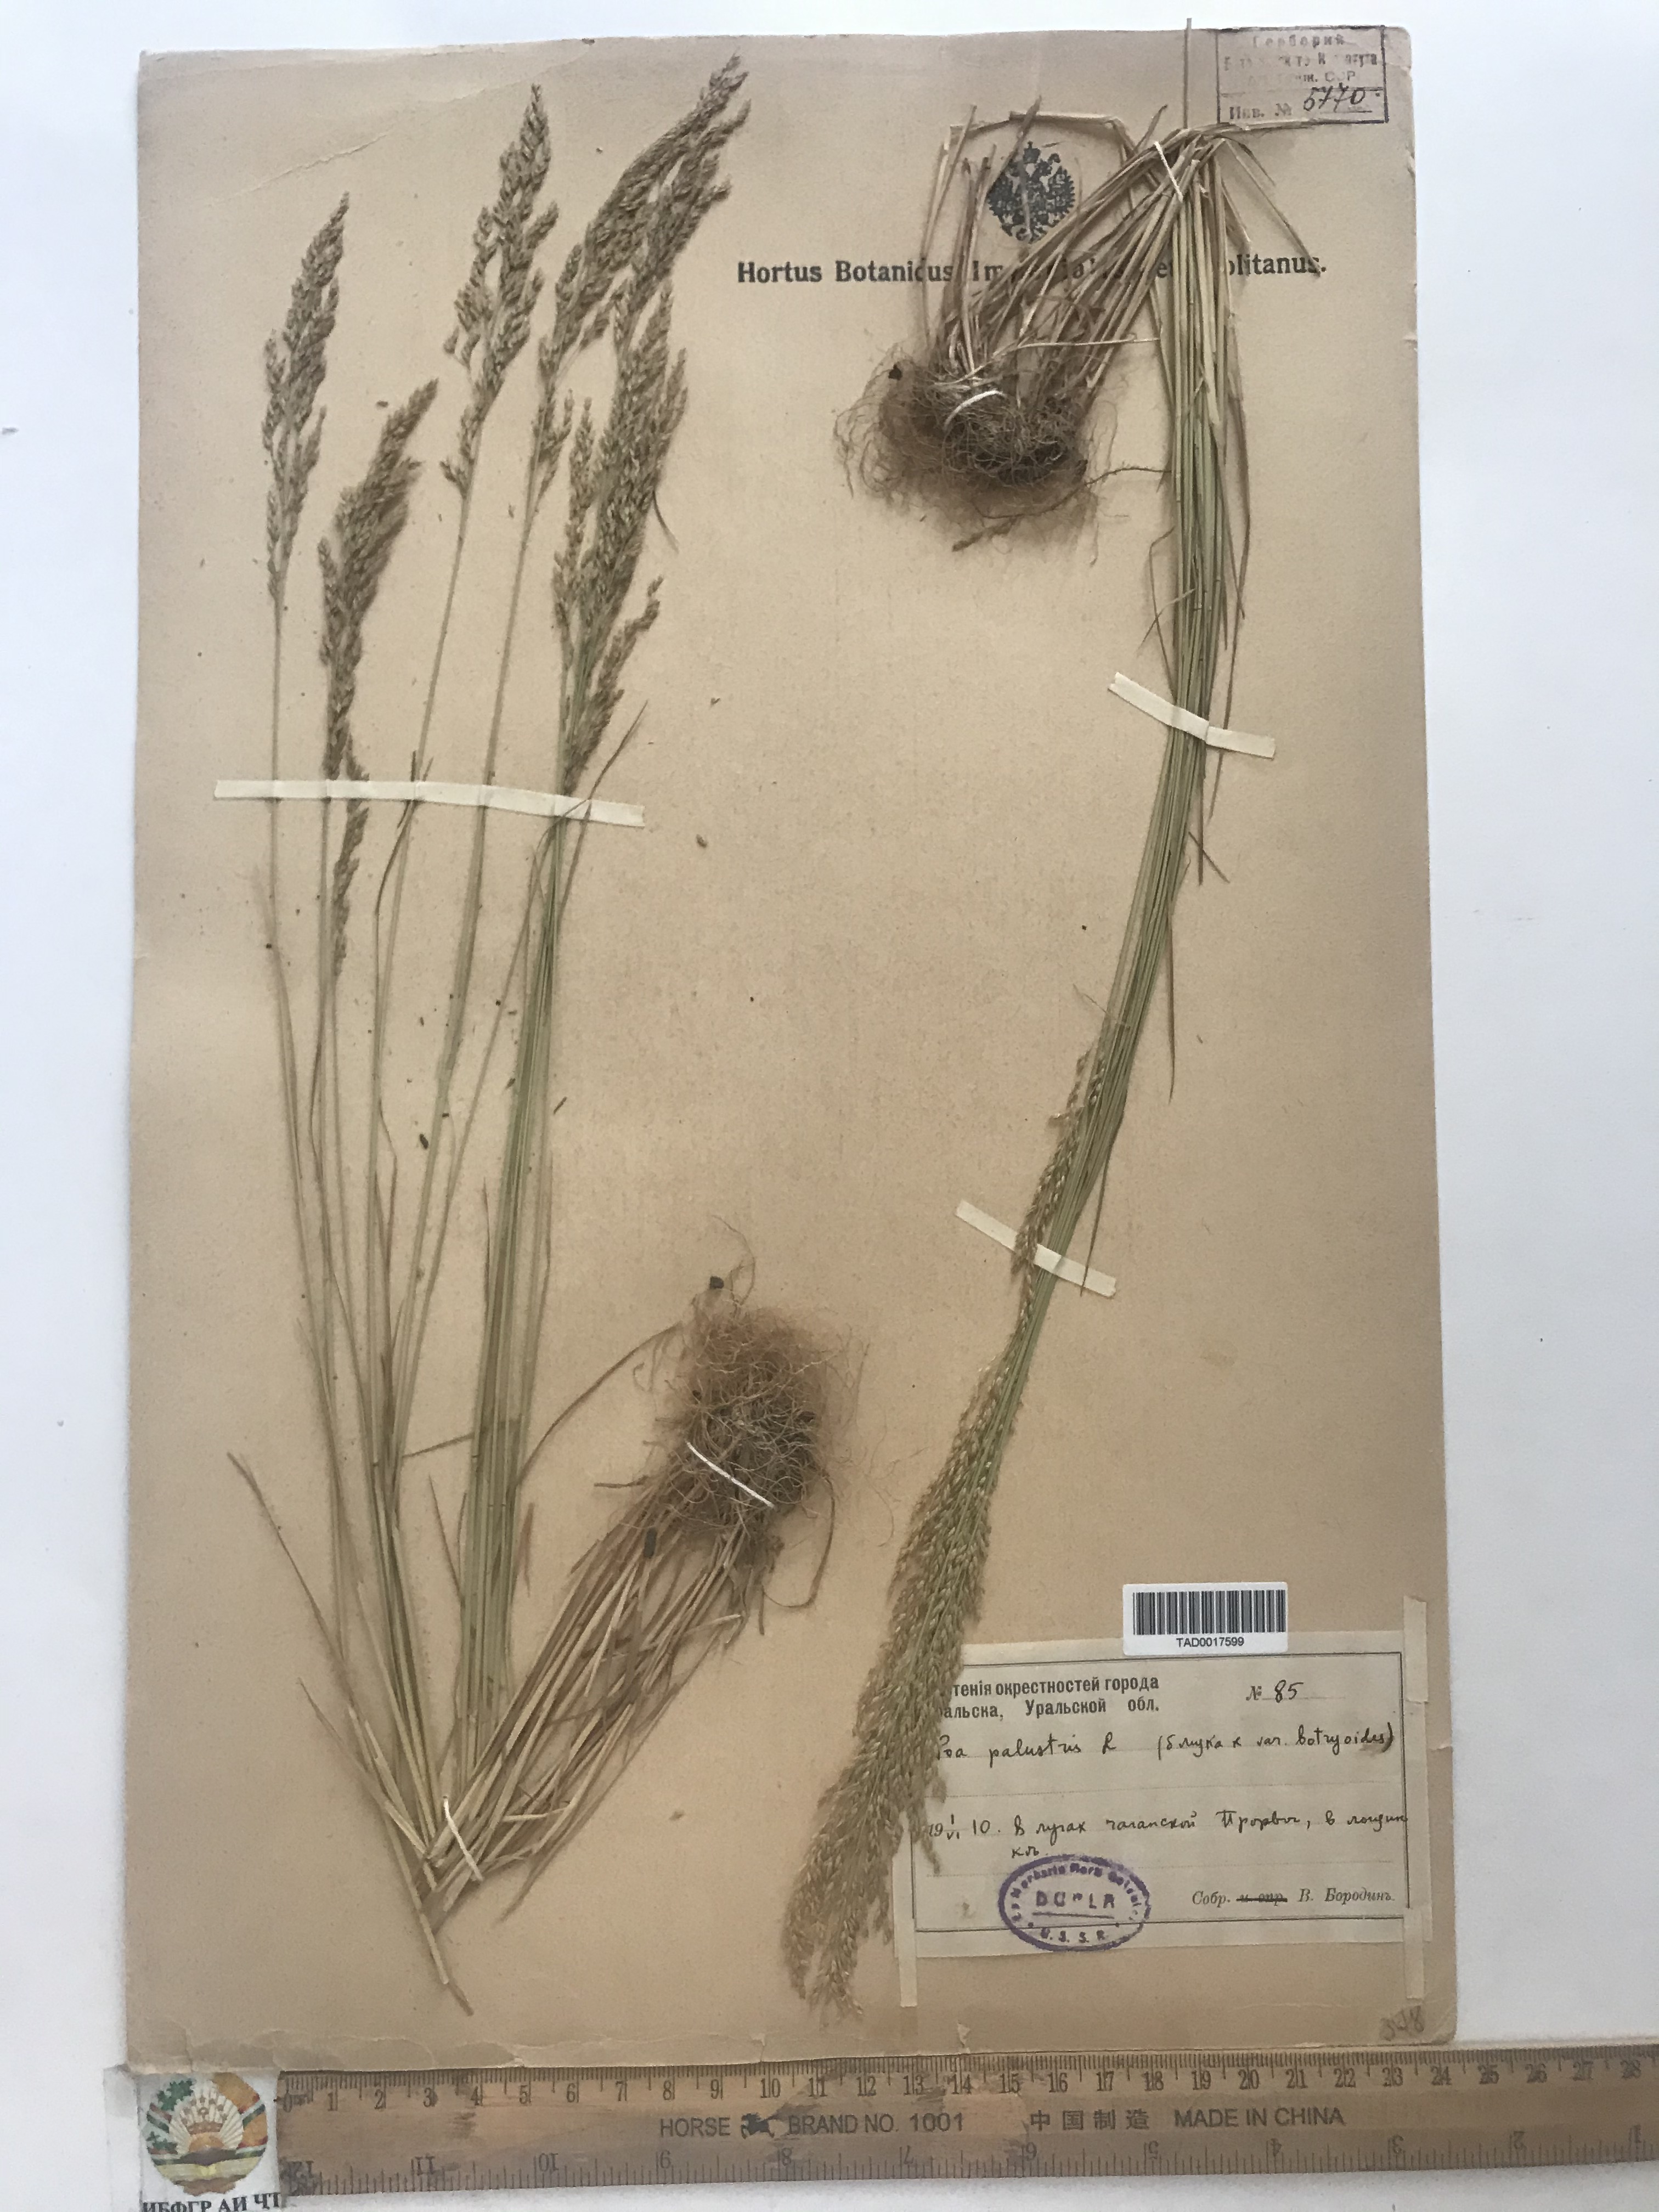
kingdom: Plantae
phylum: Tracheophyta
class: Liliopsida
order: Poales
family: Poaceae
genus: Poa
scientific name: Poa palustris
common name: Swamp meadow-grass
